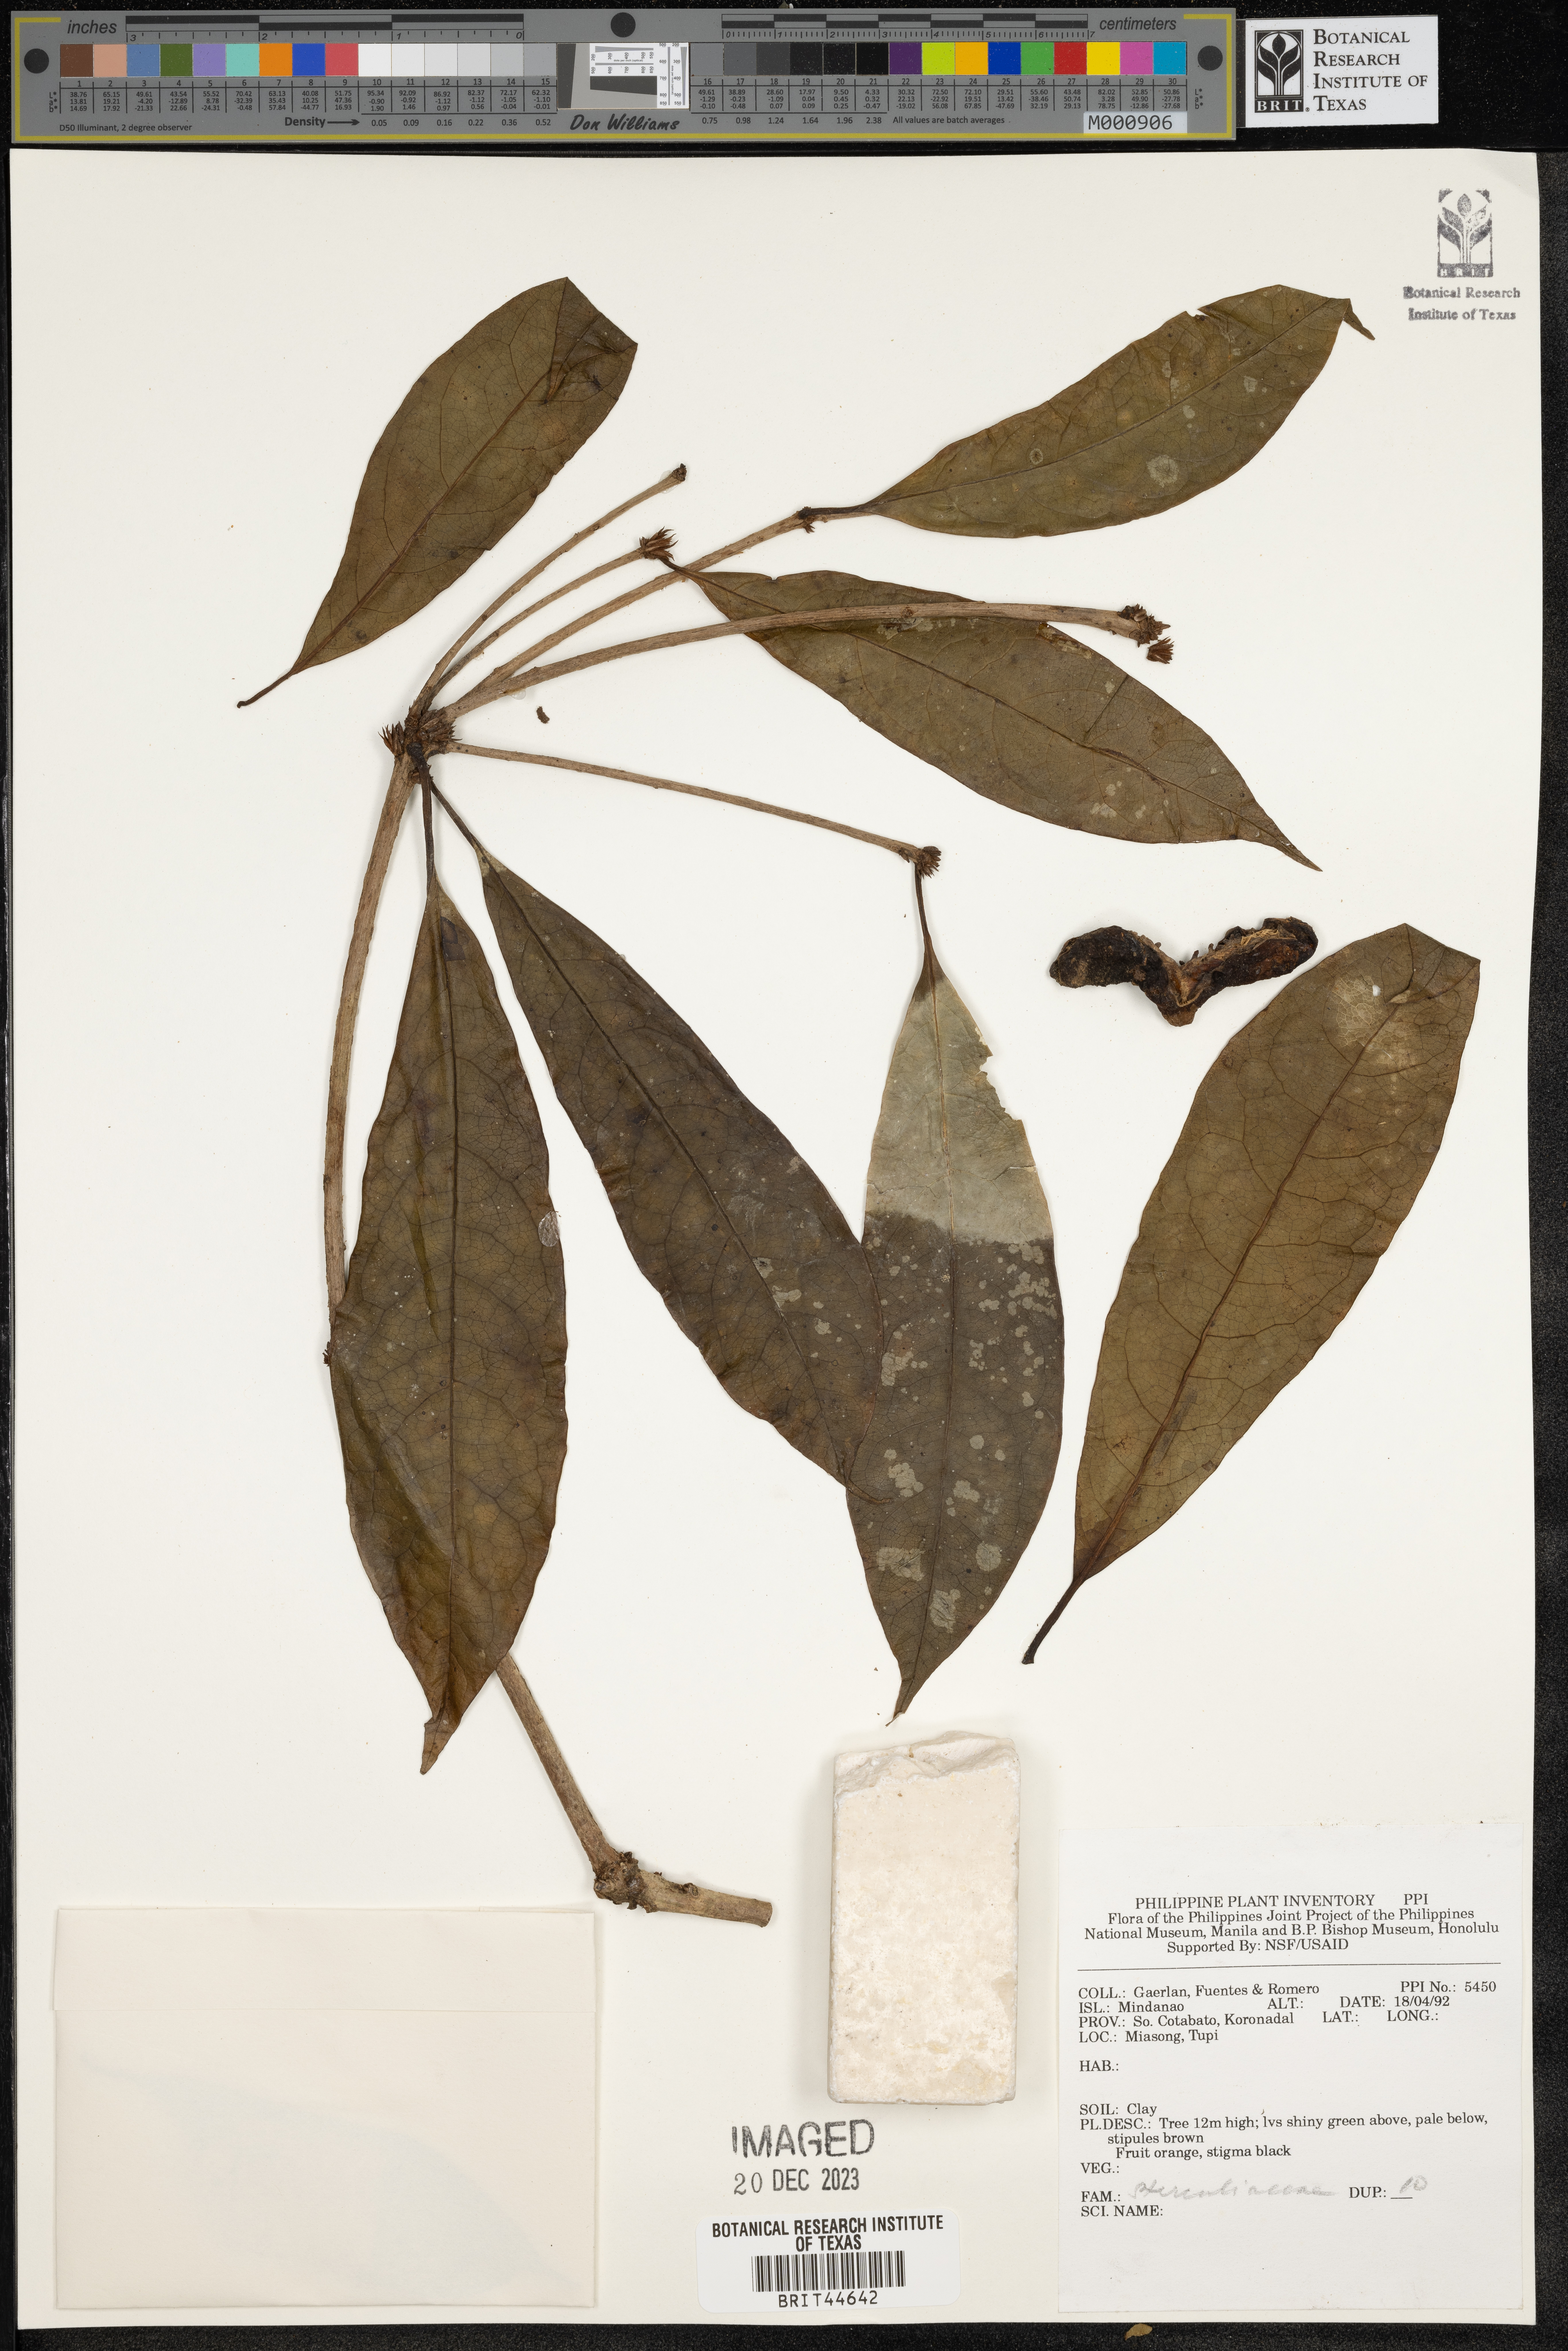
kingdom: Plantae
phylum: Tracheophyta
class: Magnoliopsida
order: Malvales
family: Sterculiaceae
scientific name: Sterculiaceae
